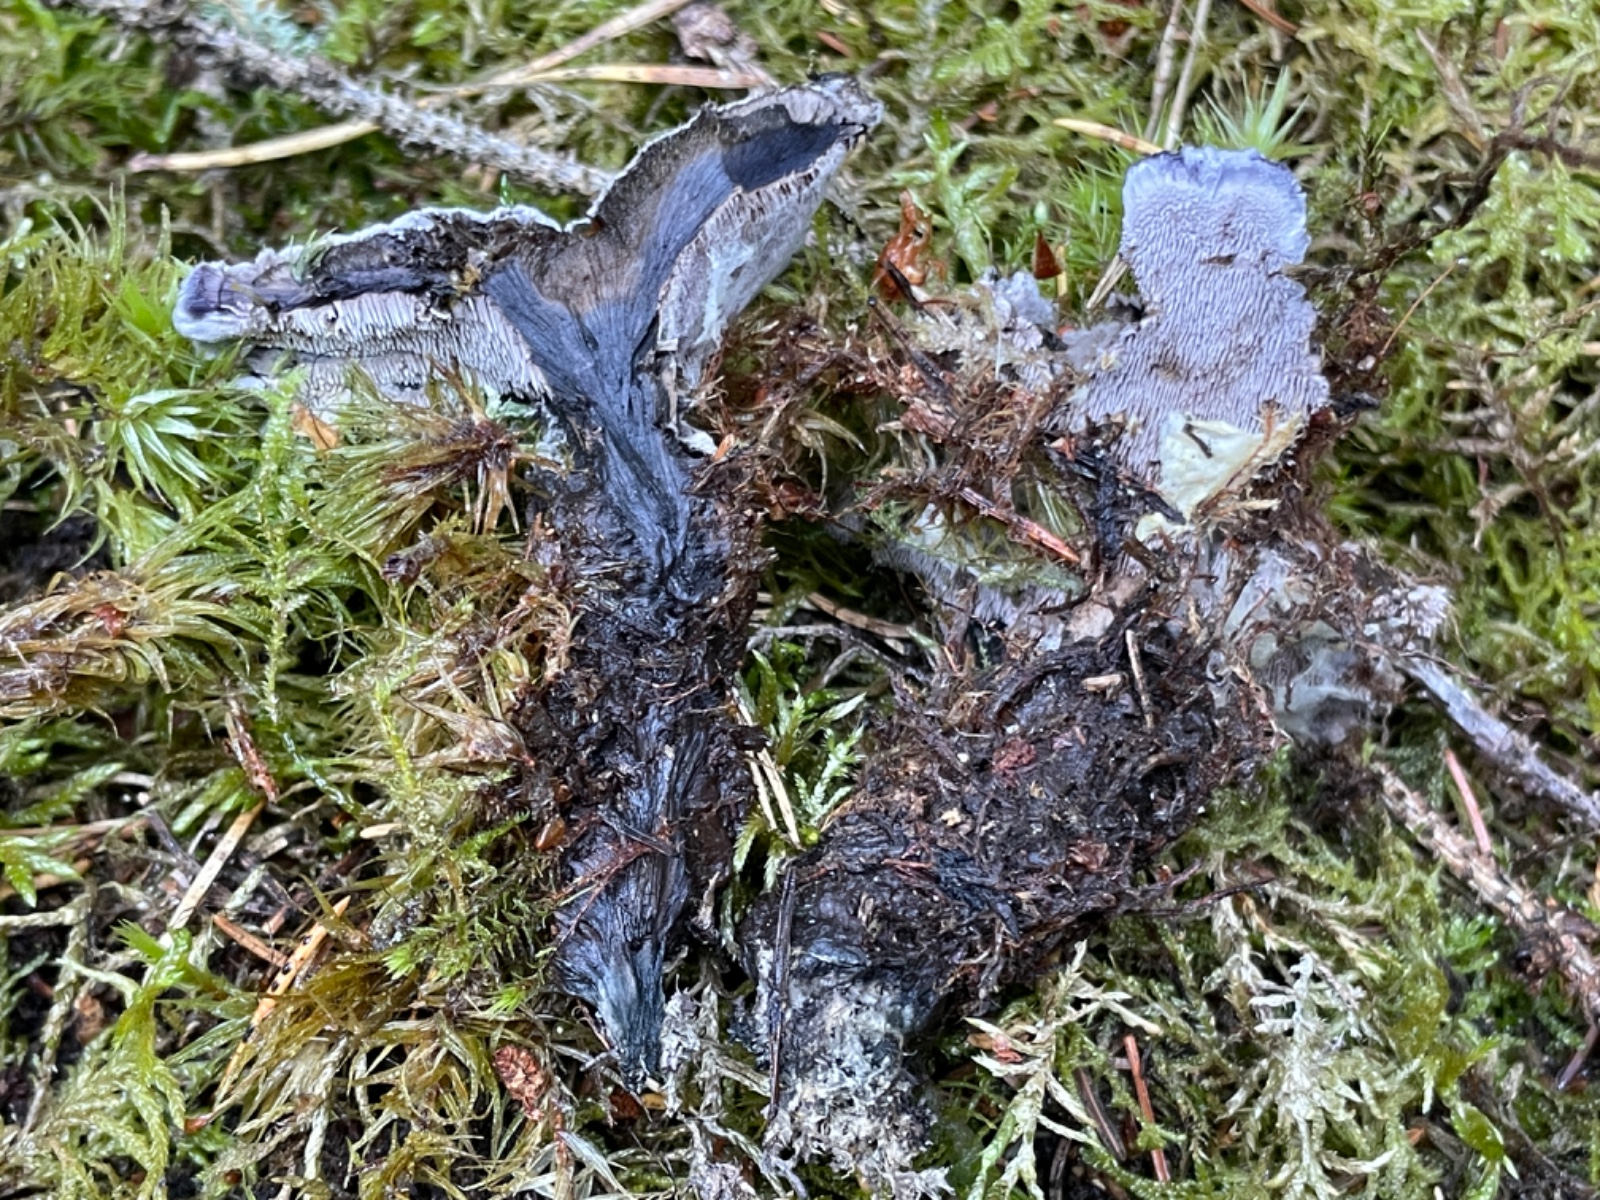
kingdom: Fungi
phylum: Basidiomycota
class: Agaricomycetes
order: Thelephorales
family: Thelephoraceae
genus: Phellodon
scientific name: Phellodon
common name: mørk duftpigsvamp
